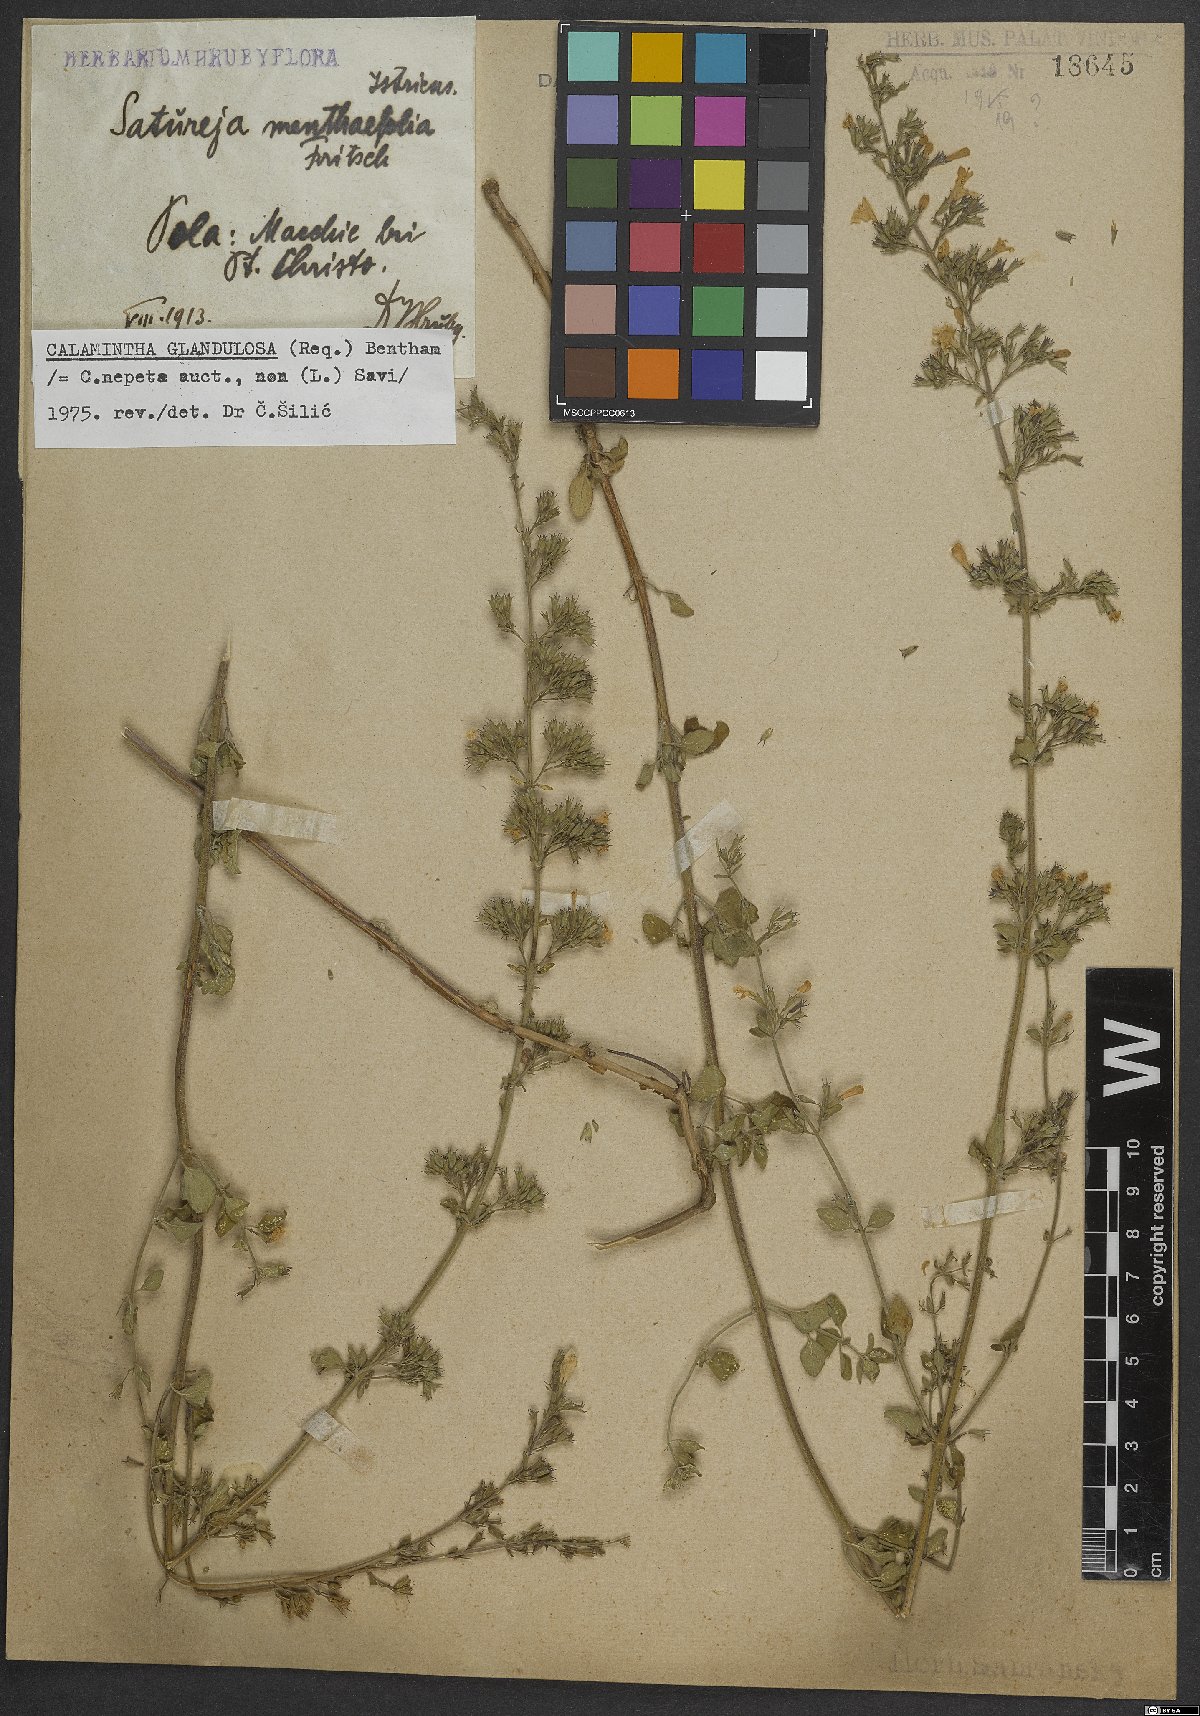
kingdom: Plantae
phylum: Tracheophyta
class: Magnoliopsida
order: Lamiales
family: Lamiaceae
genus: Clinopodium
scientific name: Clinopodium nepeta
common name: Lesser calamint
